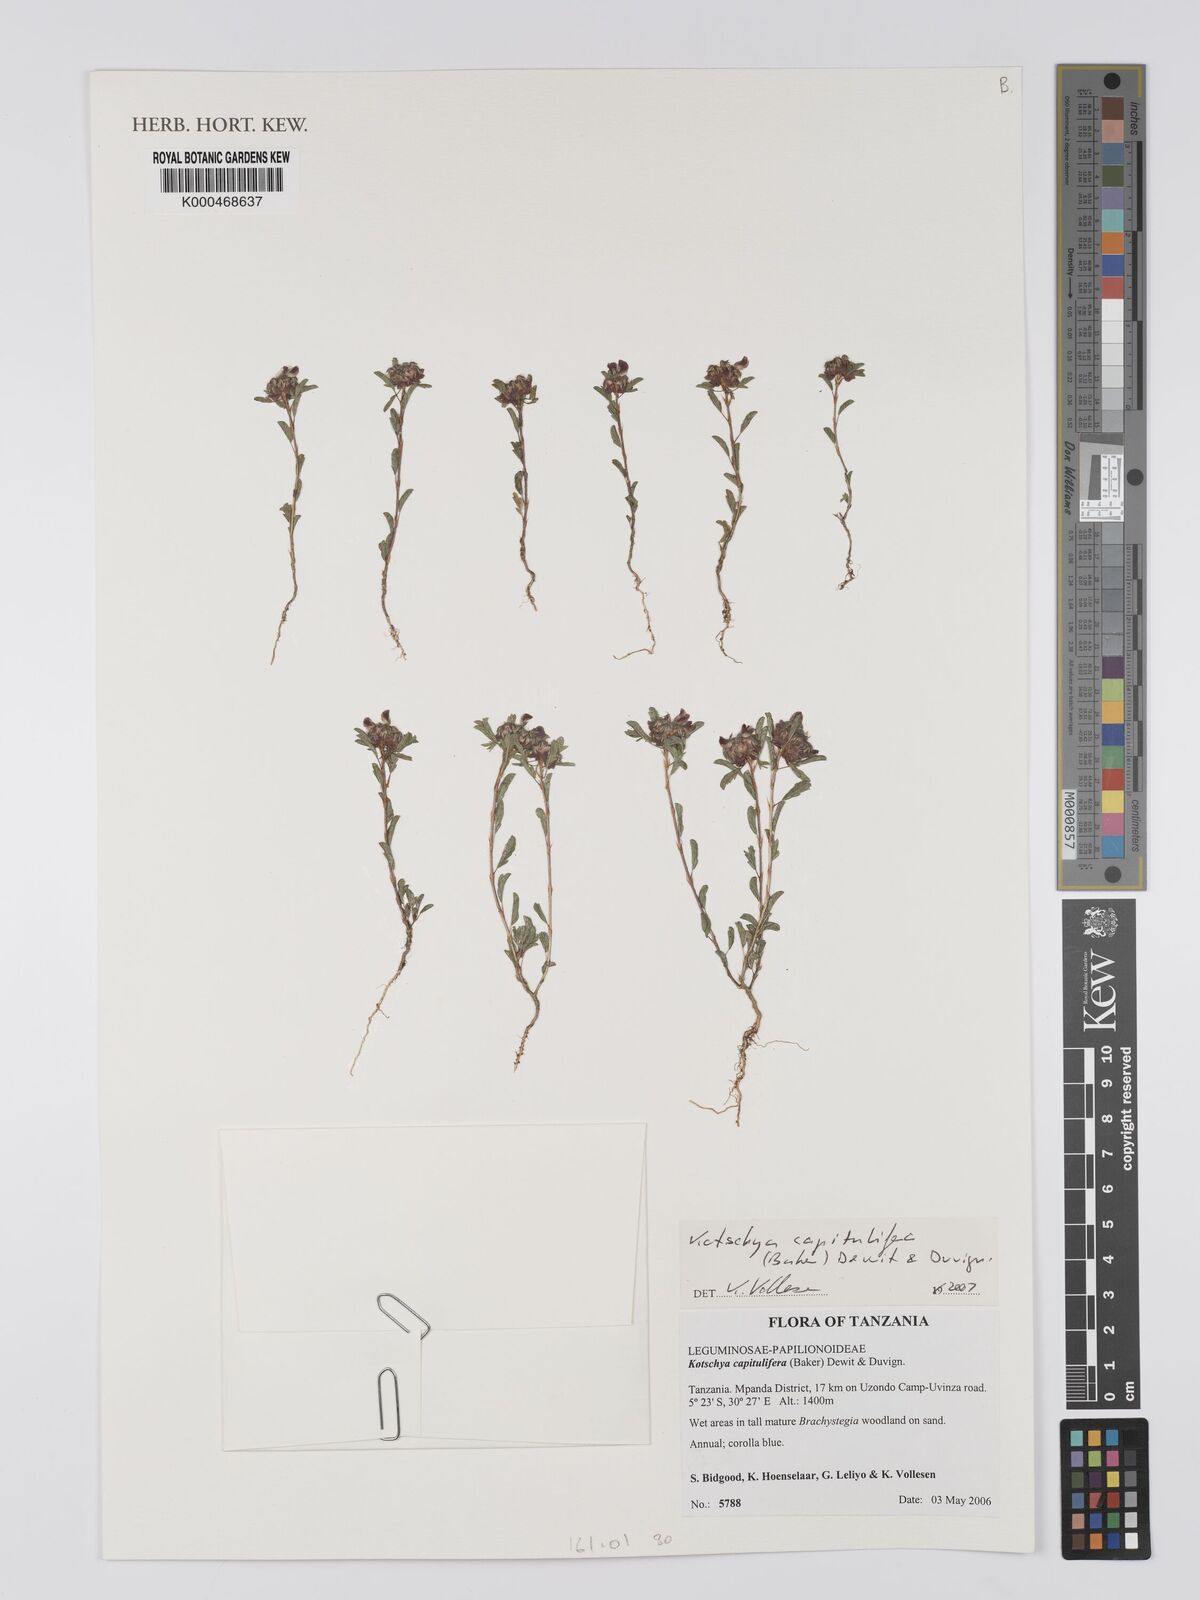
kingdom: Plantae
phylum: Tracheophyta
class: Magnoliopsida
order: Fabales
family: Fabaceae
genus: Kotschya
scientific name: Kotschya capitulifera
